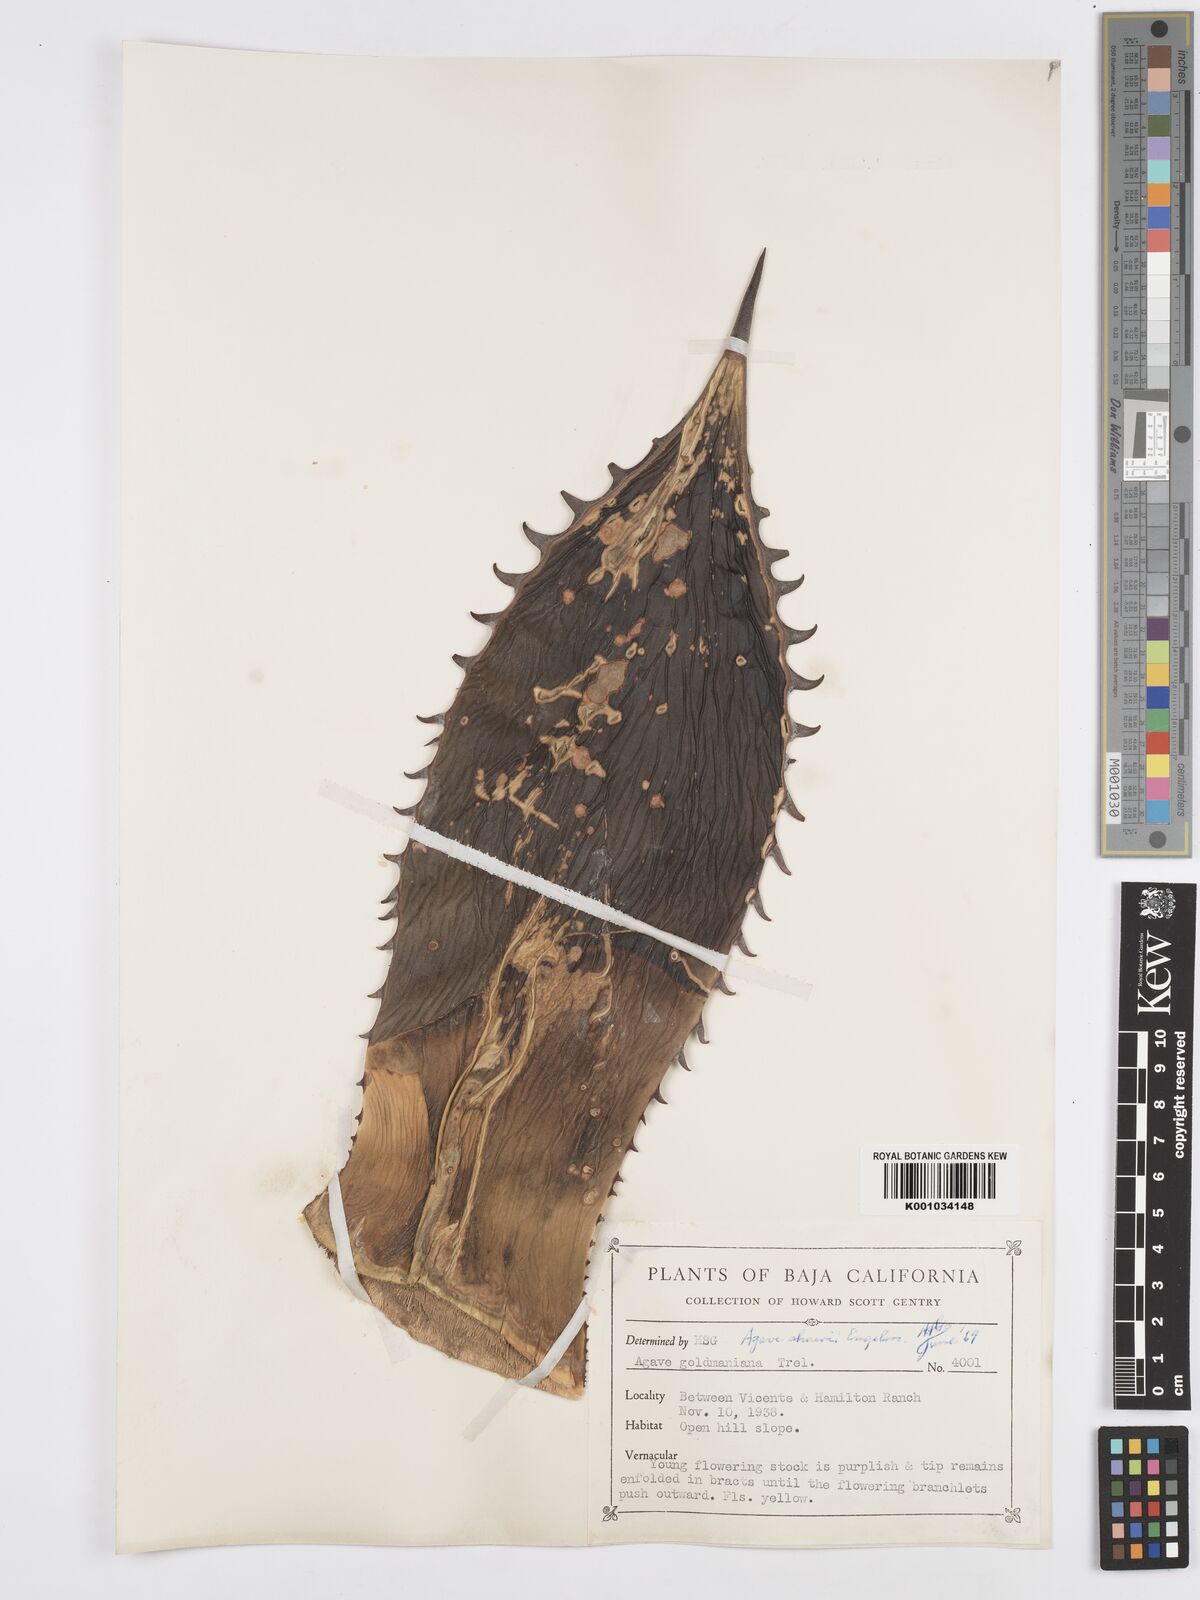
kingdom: Plantae
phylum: Tracheophyta
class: Liliopsida
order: Asparagales
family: Asparagaceae
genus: Agave
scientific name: Agave shawii
